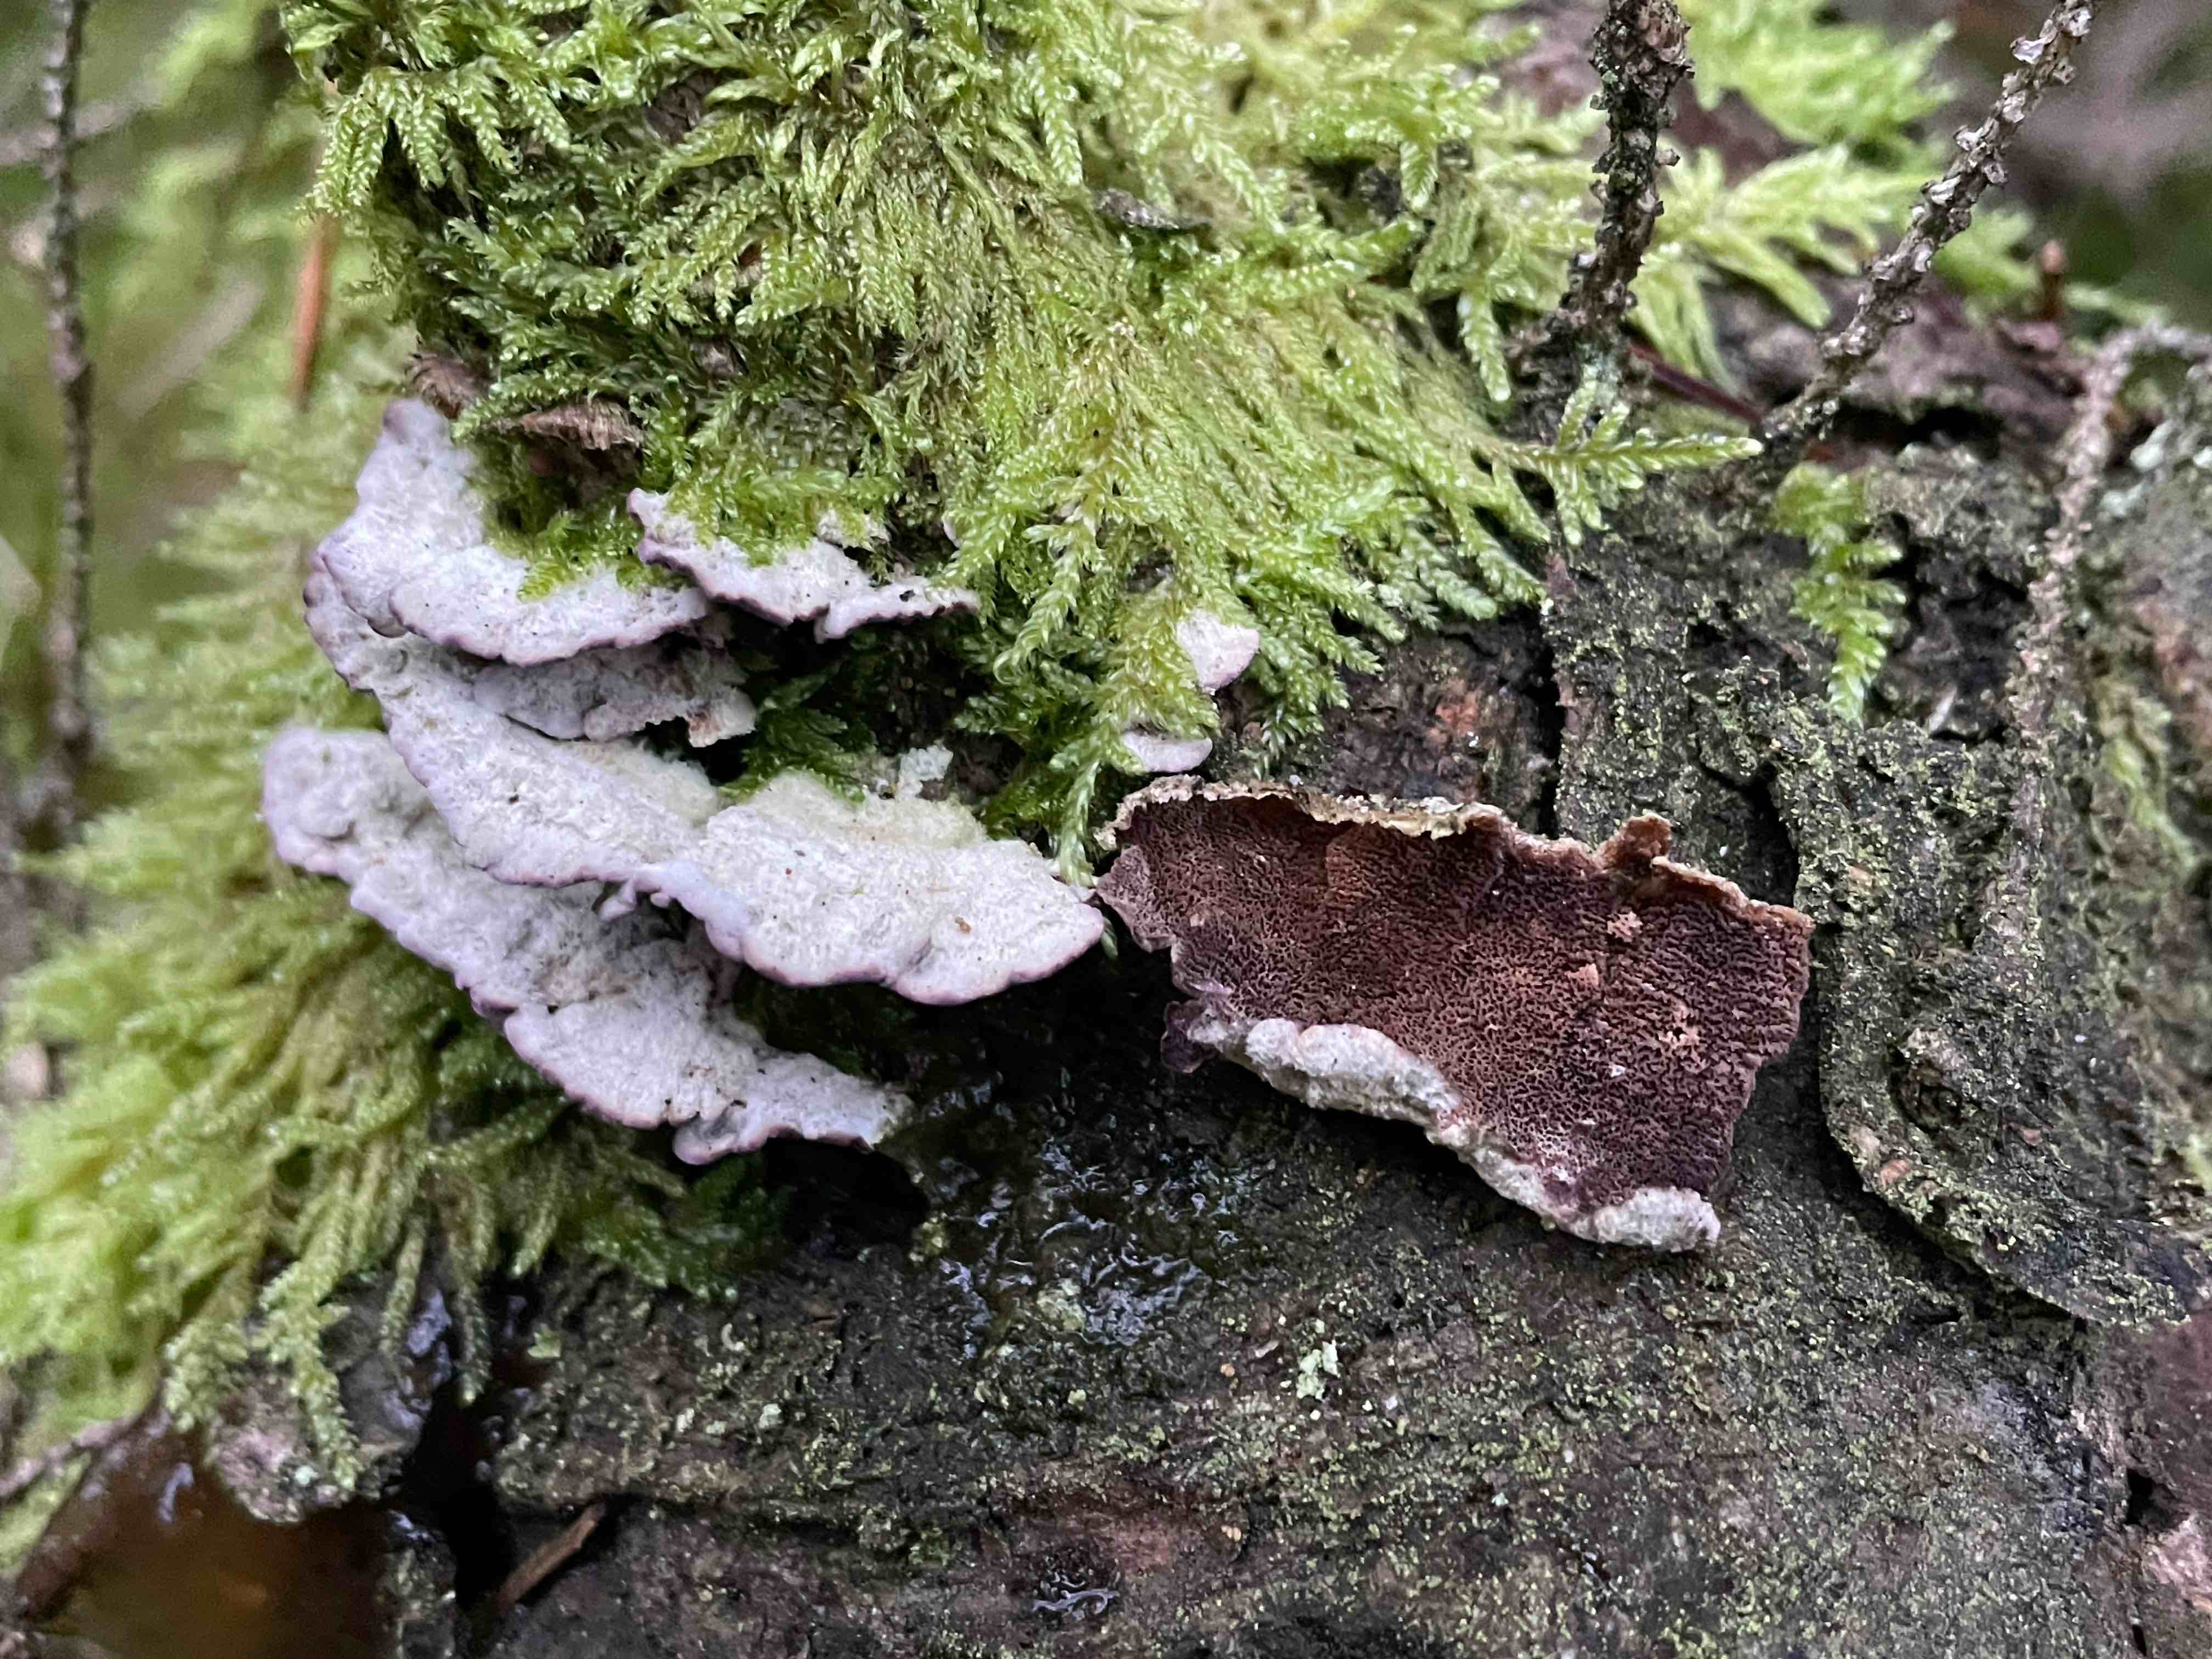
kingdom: Fungi
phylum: Basidiomycota
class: Agaricomycetes
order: Hymenochaetales
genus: Trichaptum
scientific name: Trichaptum abietinum
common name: almindelig violporesvamp
